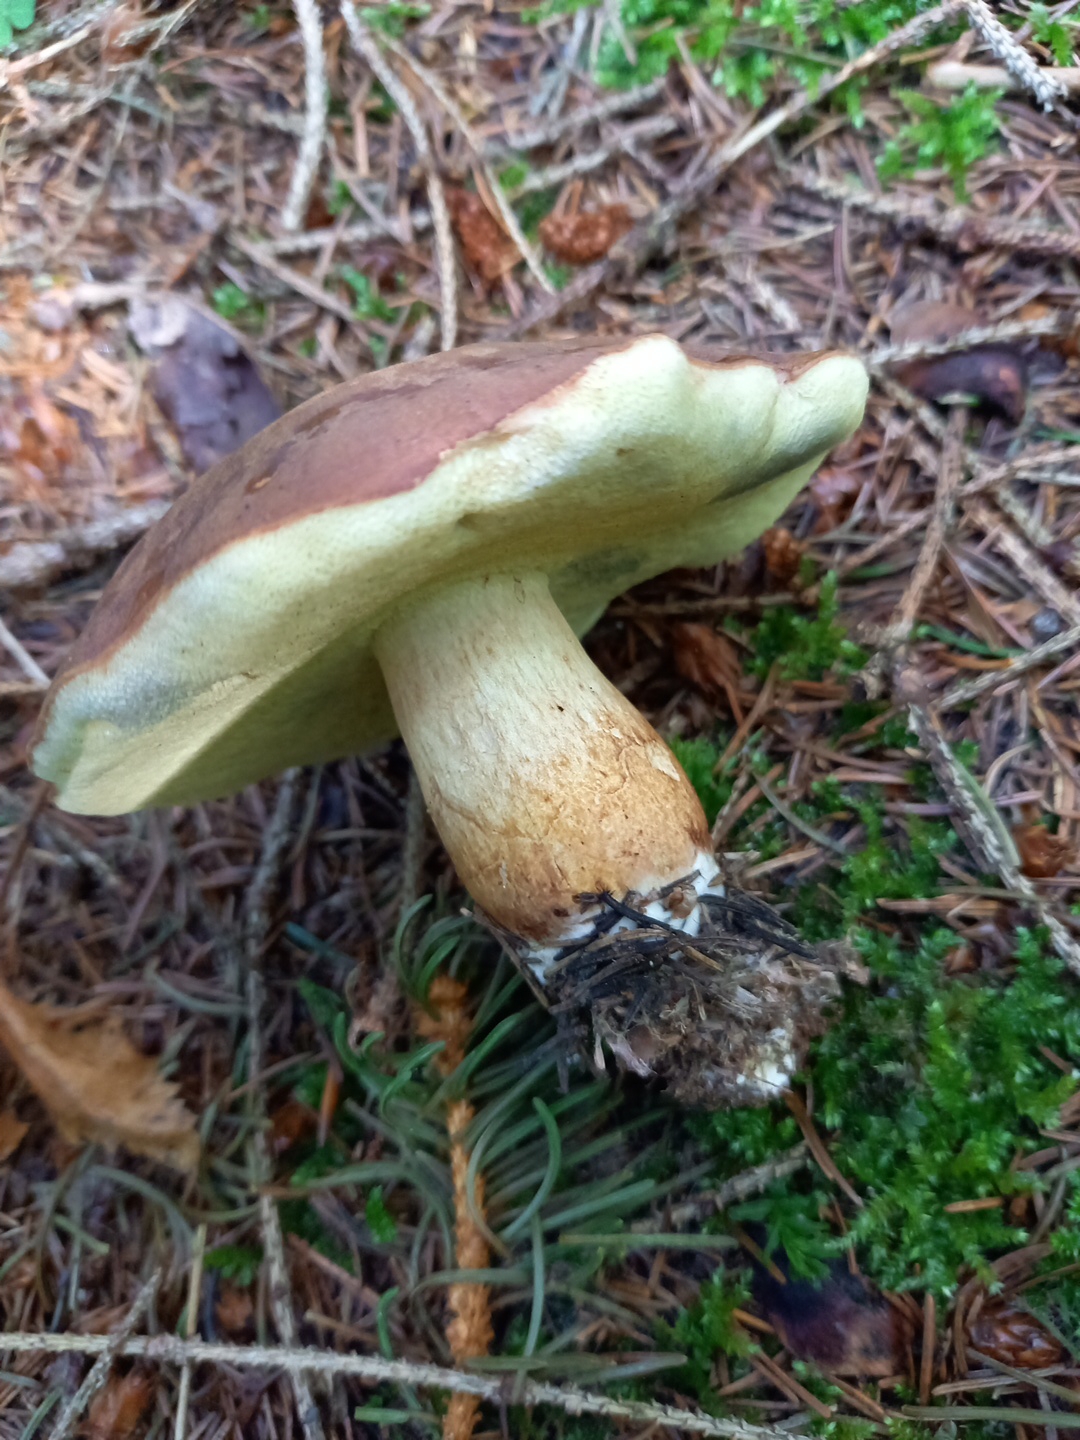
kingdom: Fungi
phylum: Basidiomycota
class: Agaricomycetes
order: Boletales
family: Boletaceae
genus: Imleria
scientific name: Imleria badia
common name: brunstokket rørhat
